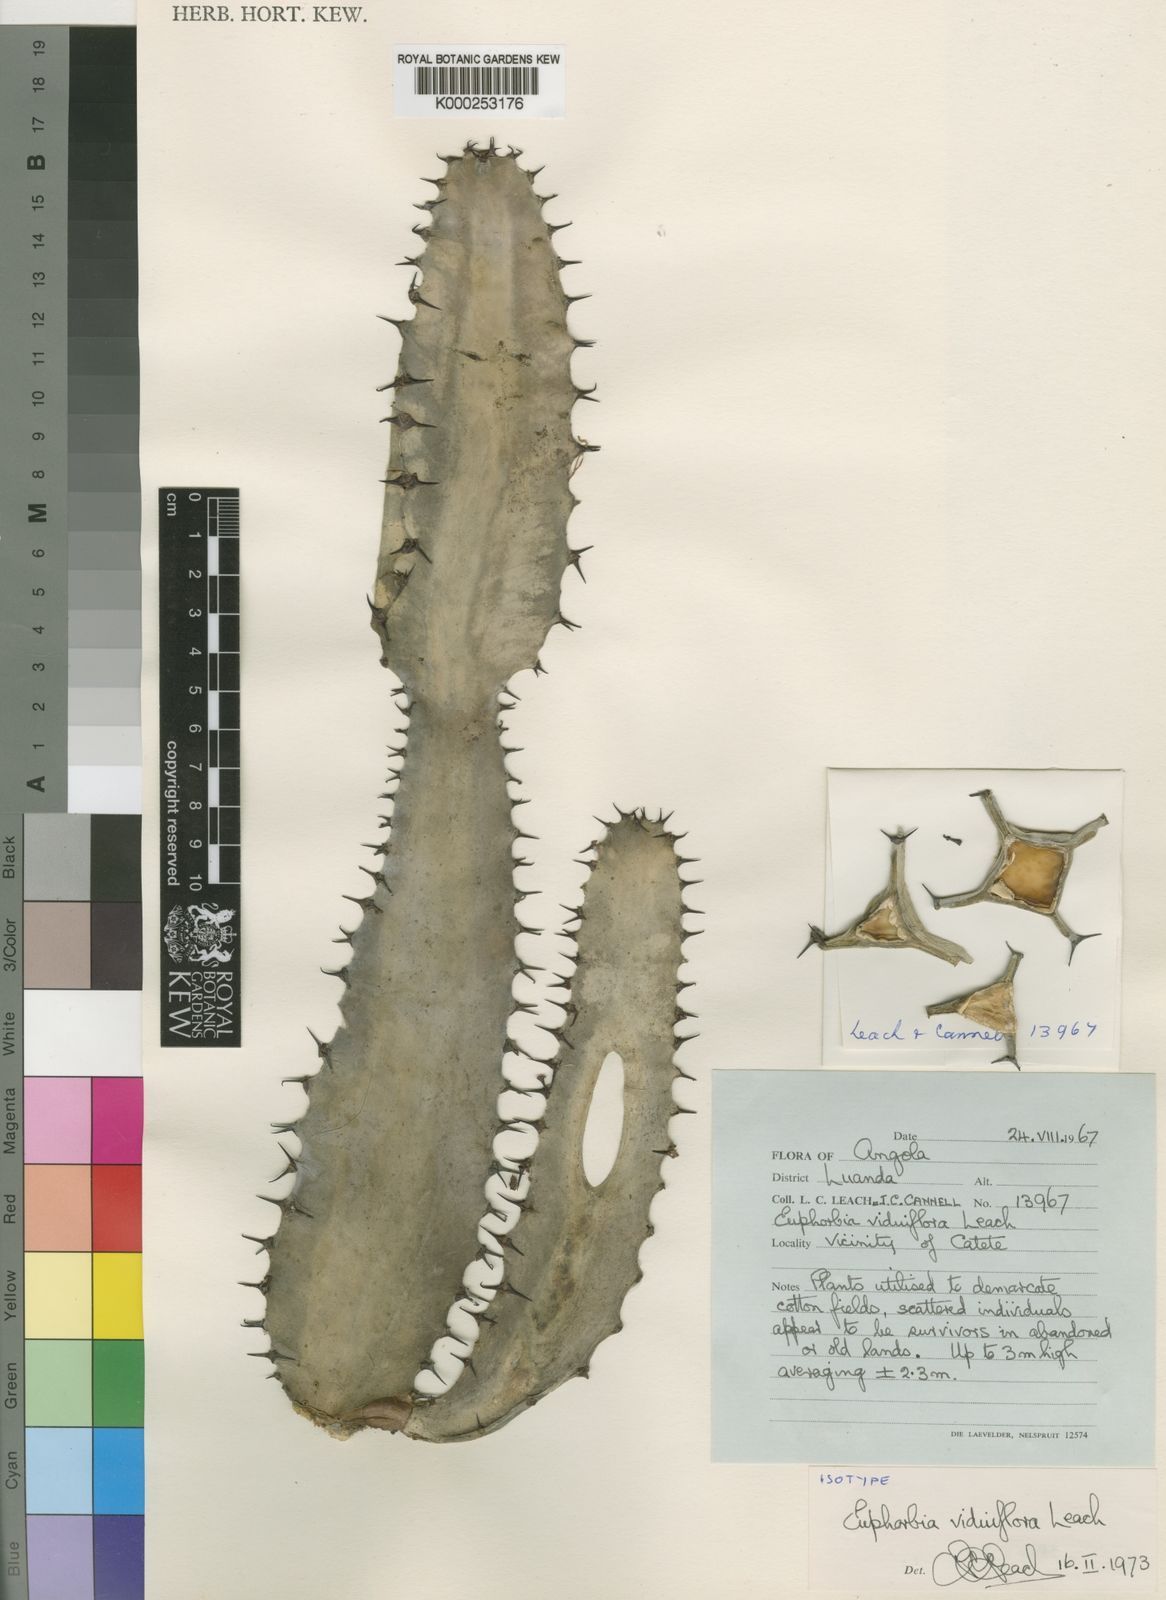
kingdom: Plantae
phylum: Tracheophyta
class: Magnoliopsida
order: Malpighiales
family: Euphorbiaceae
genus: Euphorbia
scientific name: Euphorbia viduiflora
